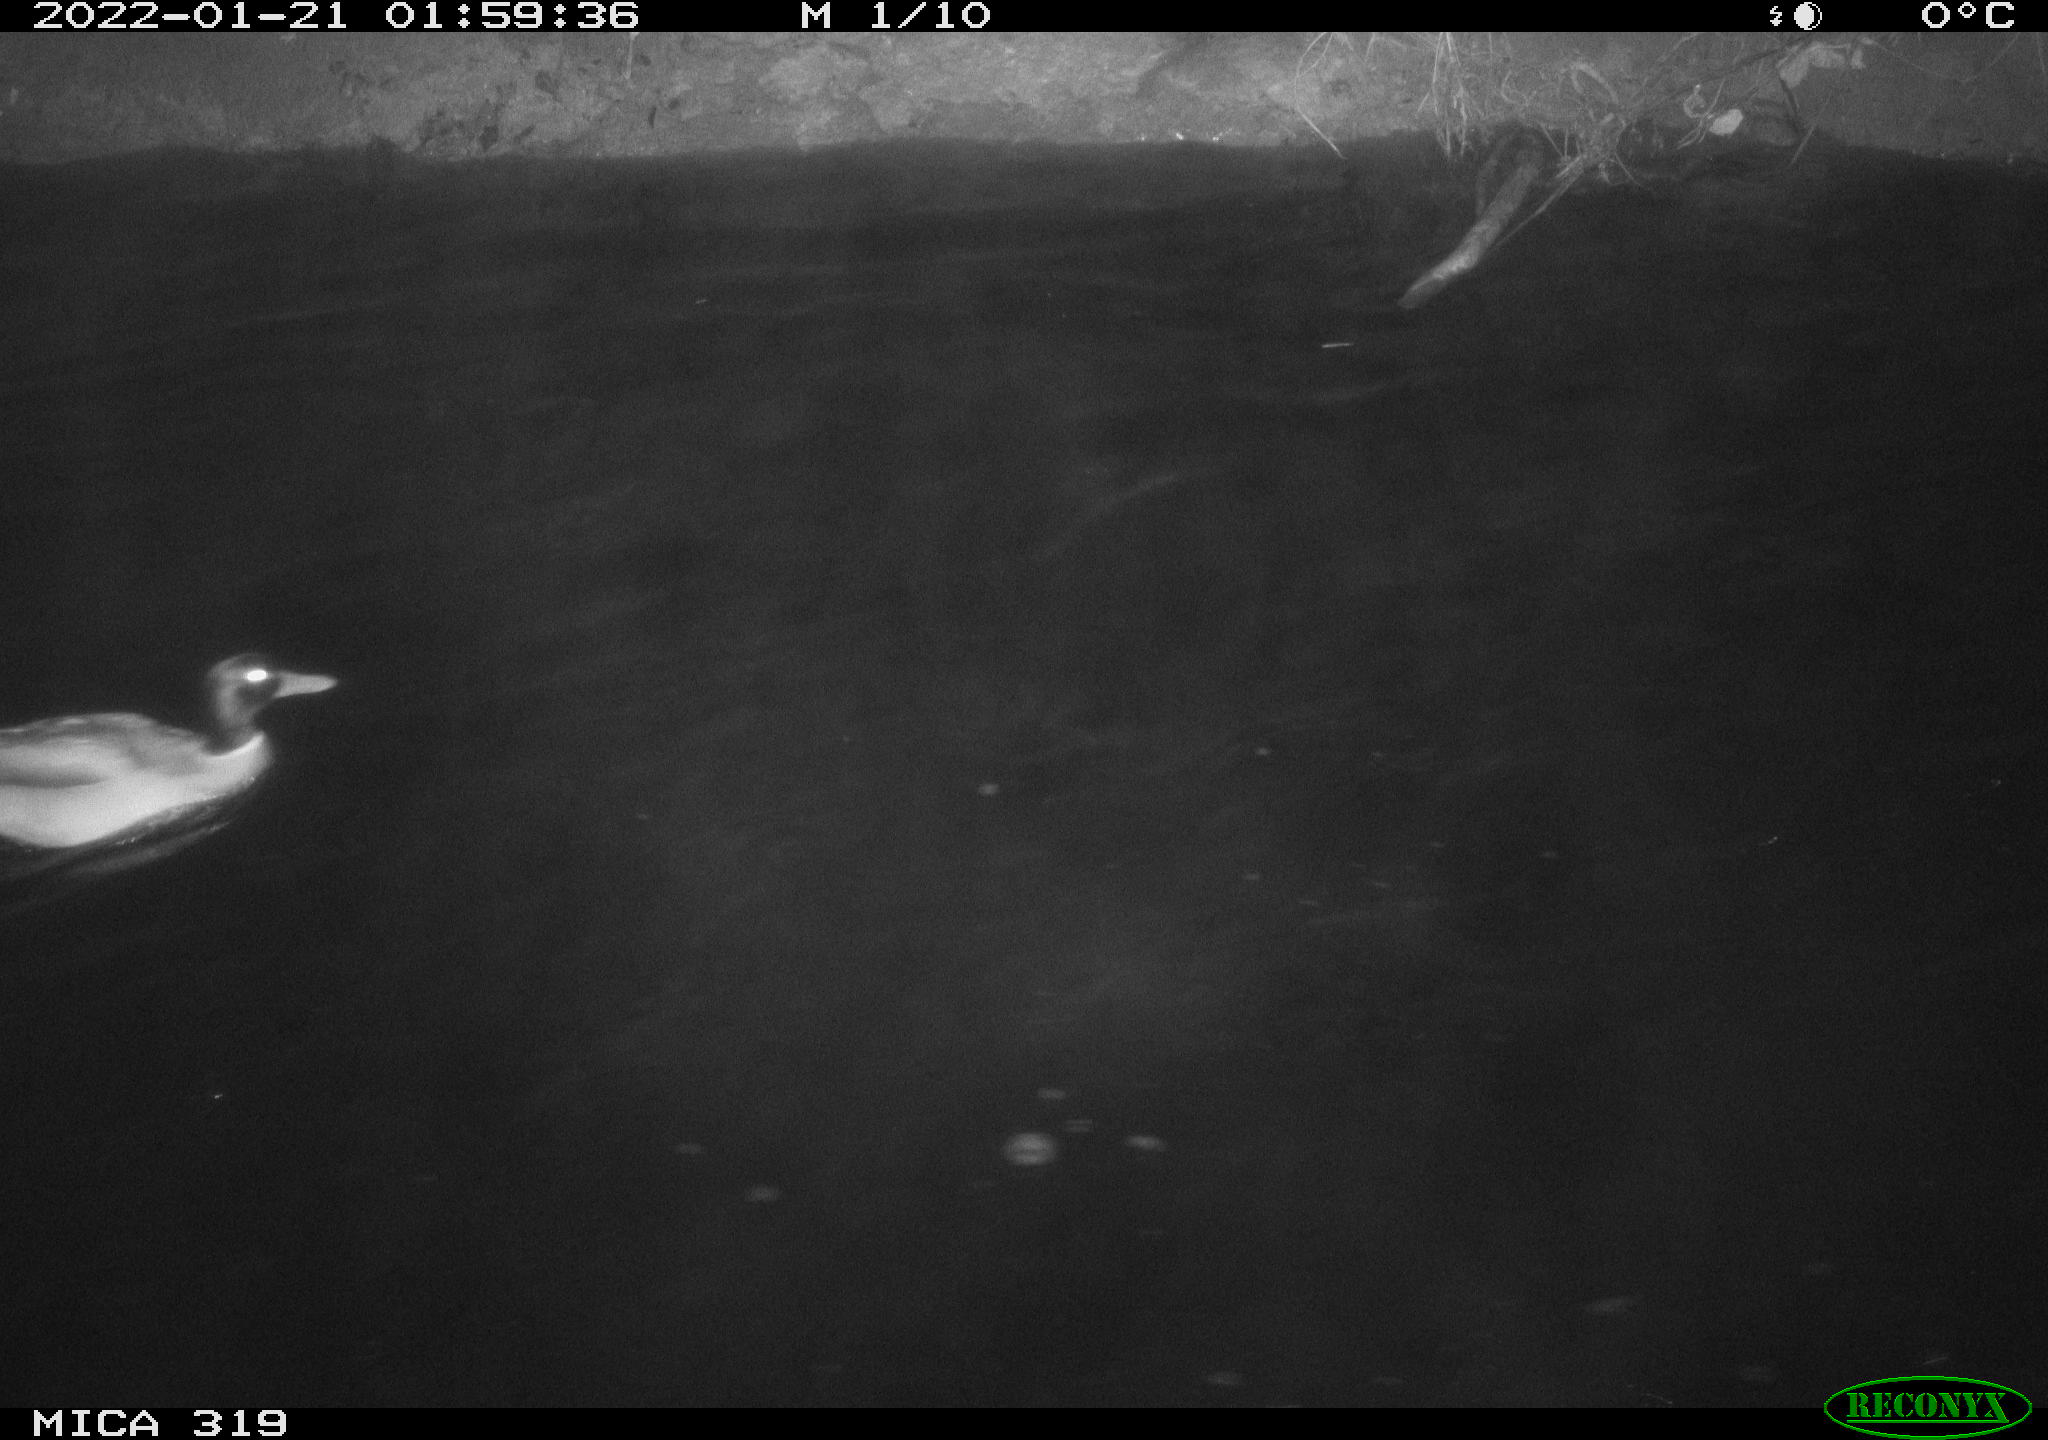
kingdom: Animalia
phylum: Chordata
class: Aves
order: Anseriformes
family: Anatidae
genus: Anas
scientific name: Anas platyrhynchos
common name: Mallard
